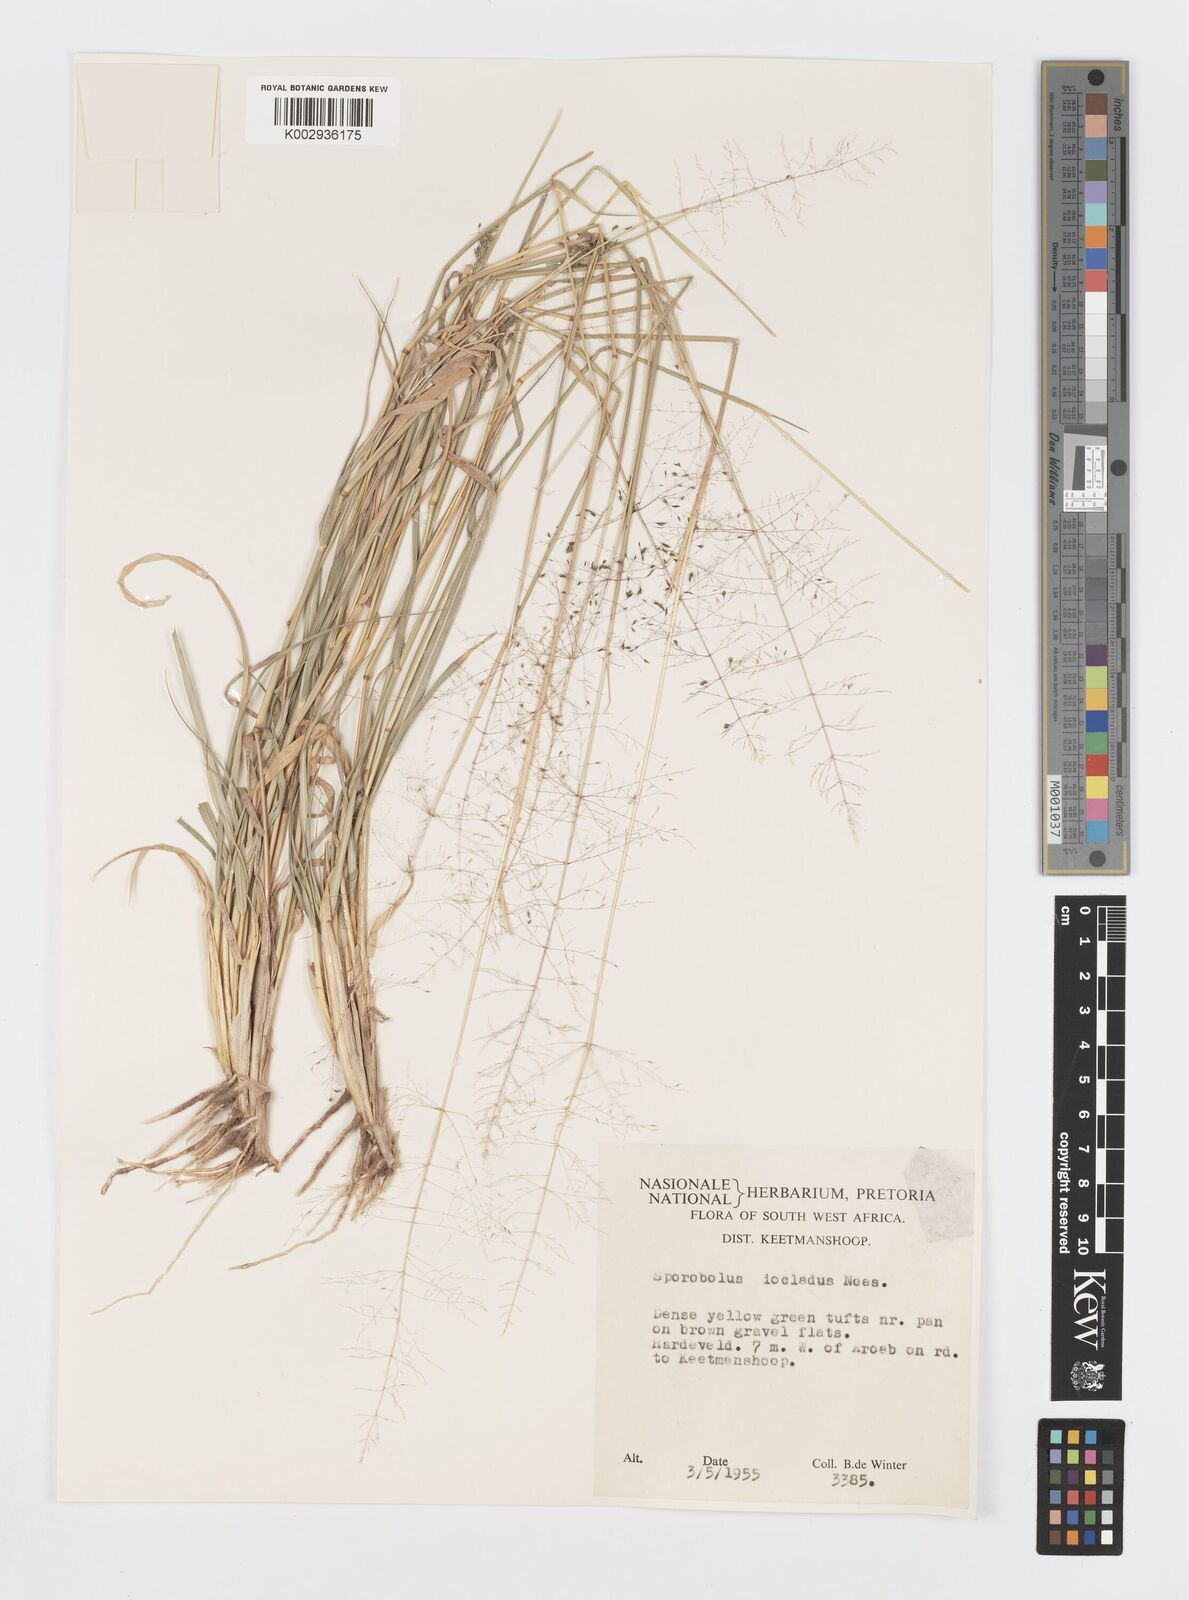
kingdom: Plantae
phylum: Tracheophyta
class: Liliopsida
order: Poales
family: Poaceae
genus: Sporobolus
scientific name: Sporobolus ioclados
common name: Pan dropseed
